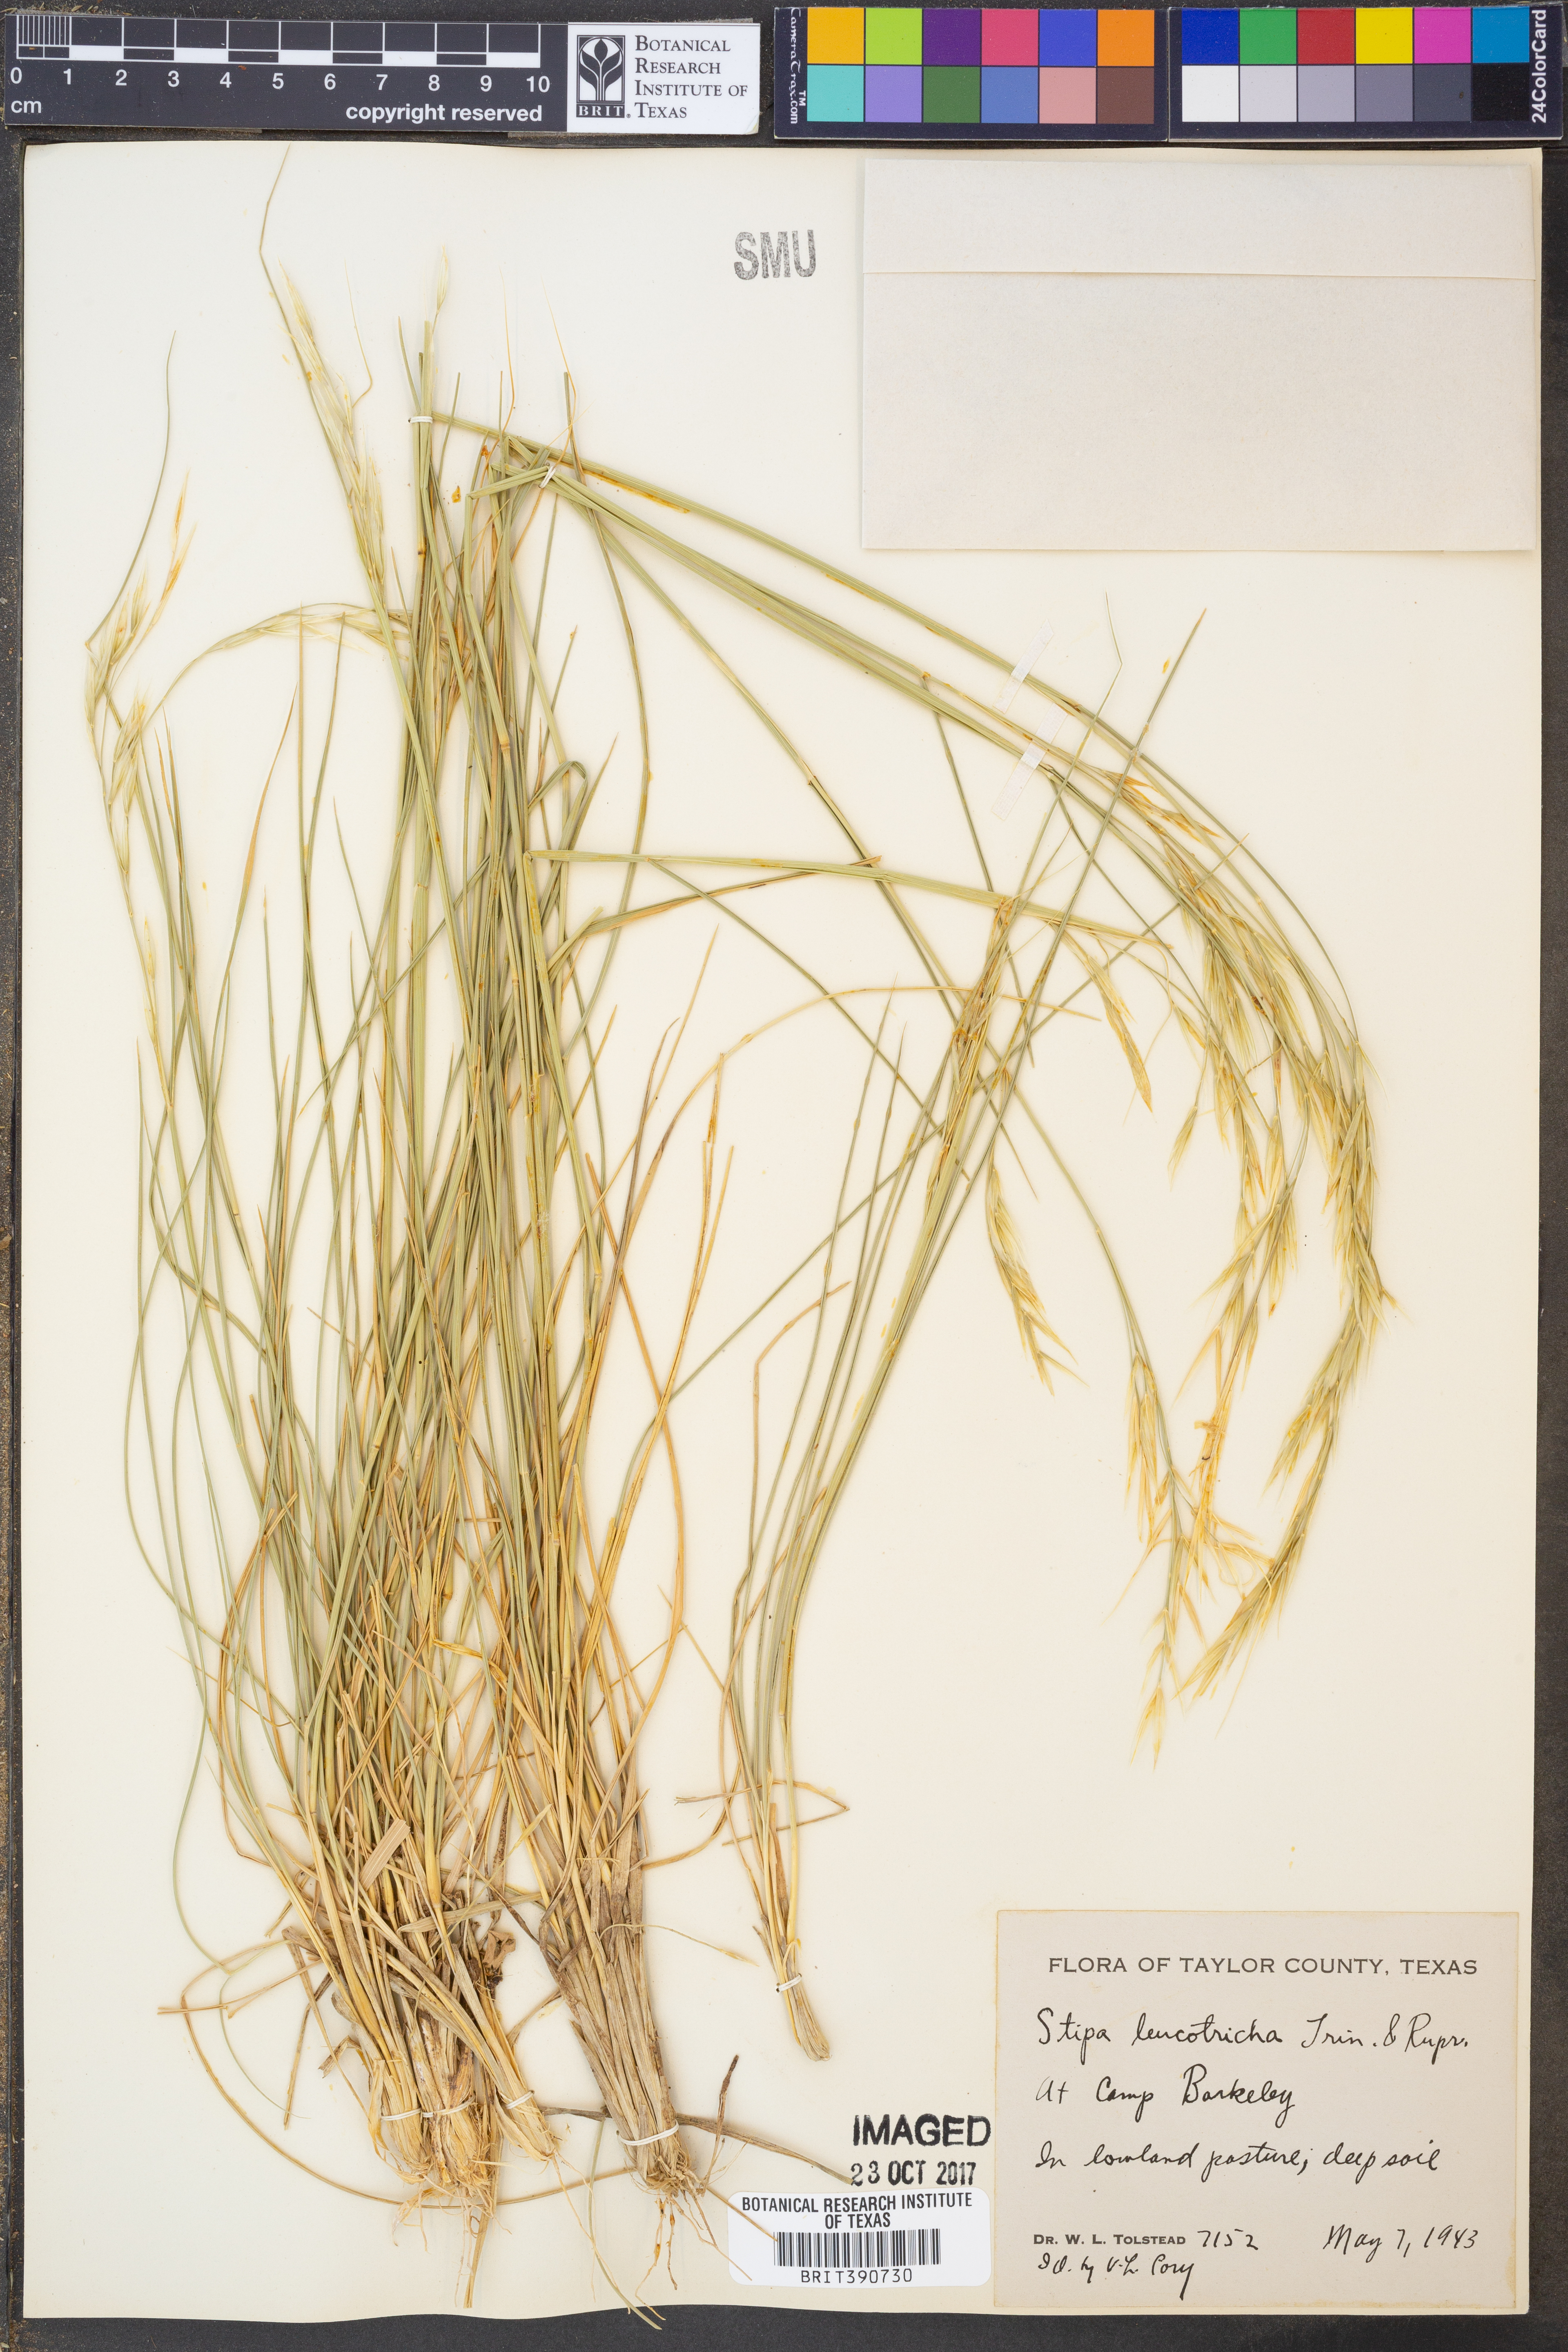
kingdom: Plantae
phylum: Tracheophyta
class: Liliopsida
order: Poales
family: Poaceae
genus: Nassella
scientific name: Nassella leucotricha
